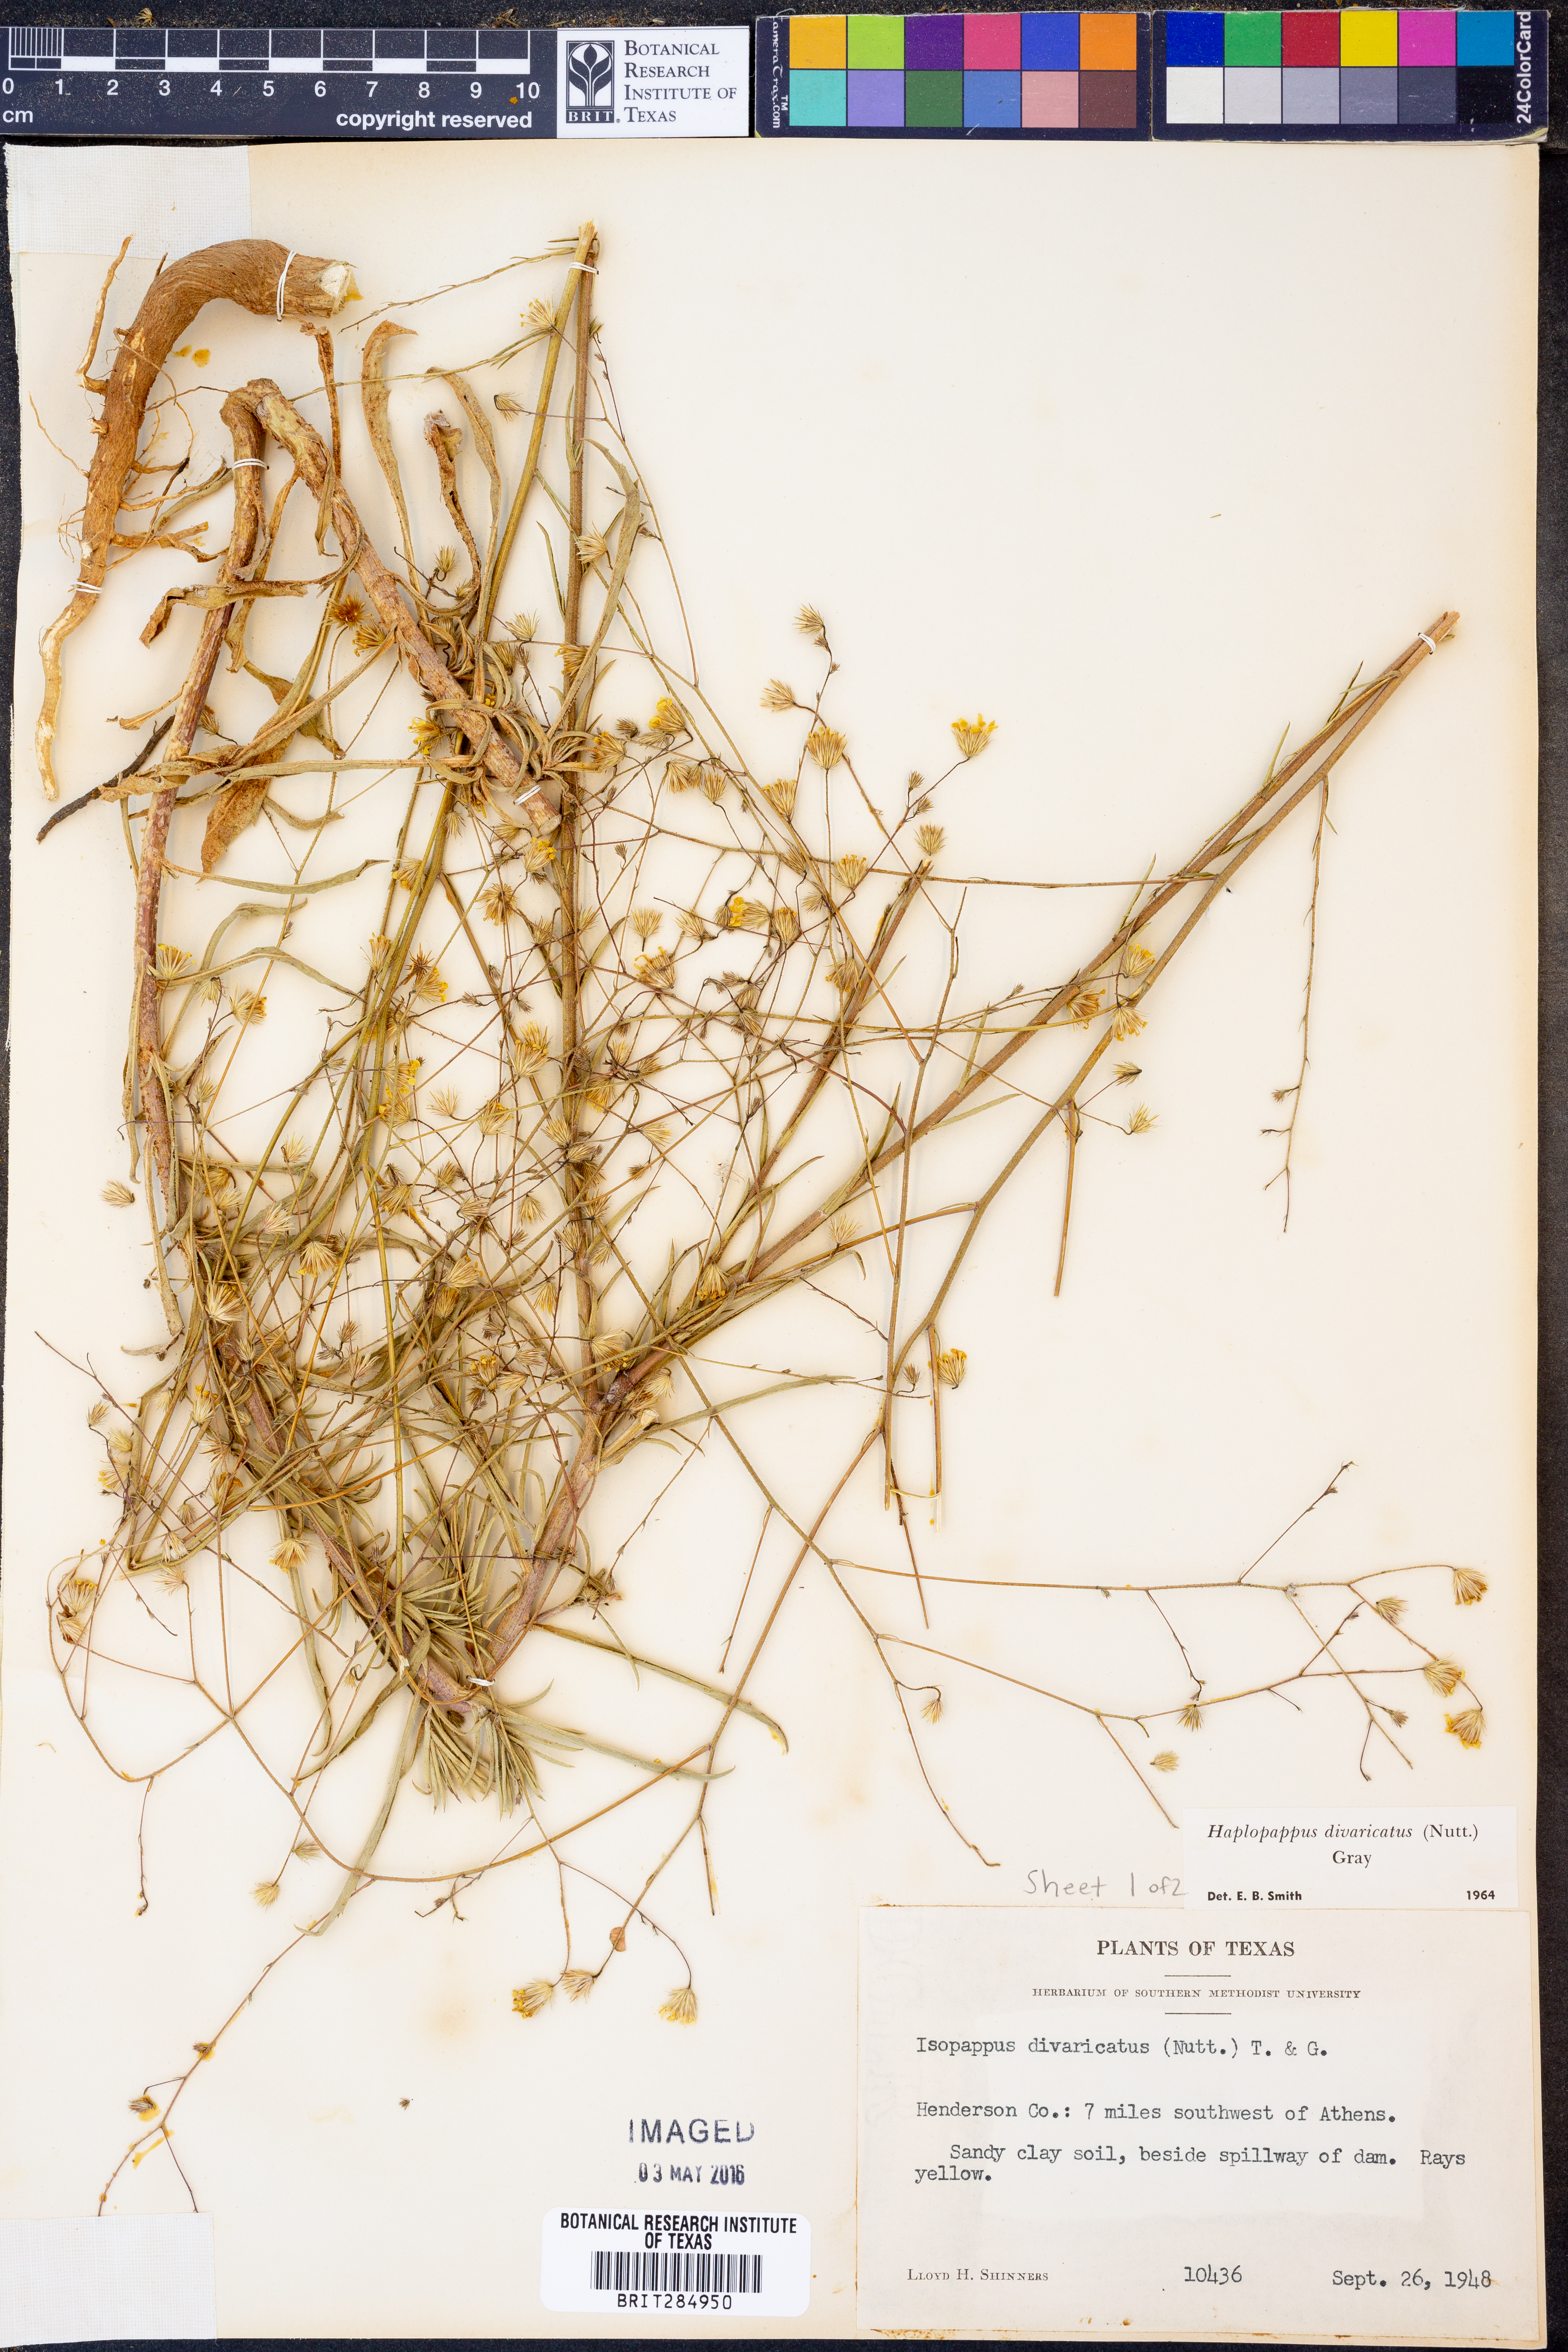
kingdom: Plantae
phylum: Tracheophyta
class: Magnoliopsida
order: Asterales
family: Asteraceae
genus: Croptilon
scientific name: Croptilon divaricatum
